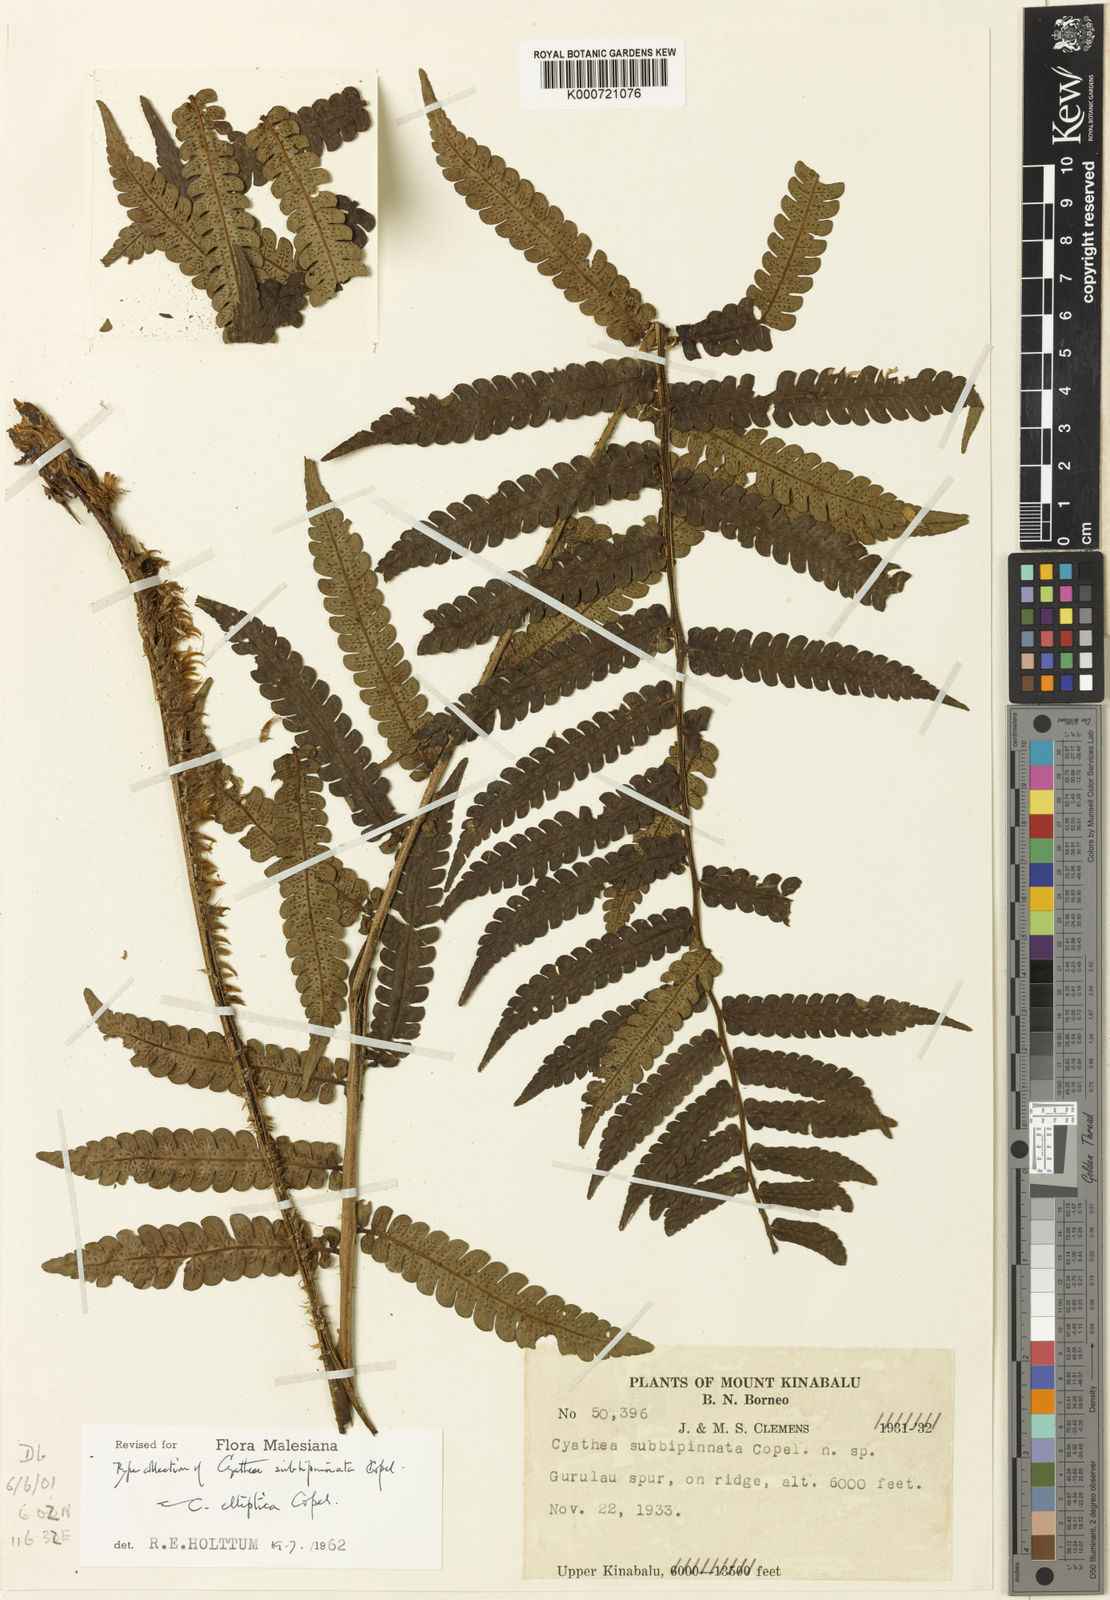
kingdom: Plantae
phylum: Tracheophyta
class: Polypodiopsida
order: Cyatheales
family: Cyatheaceae
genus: Sphaeropteris
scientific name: Sphaeropteris elliptica
